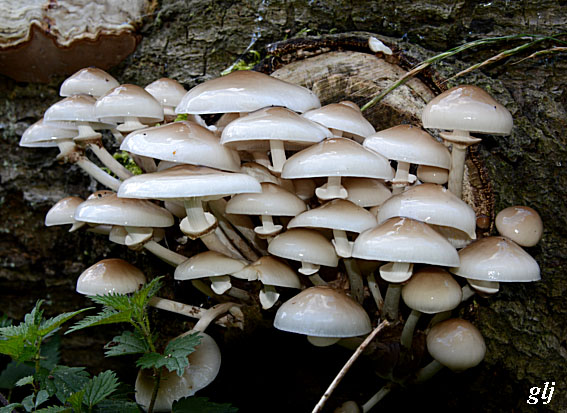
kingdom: Fungi
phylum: Basidiomycota
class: Agaricomycetes
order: Agaricales
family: Physalacriaceae
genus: Mucidula
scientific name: Mucidula mucida
